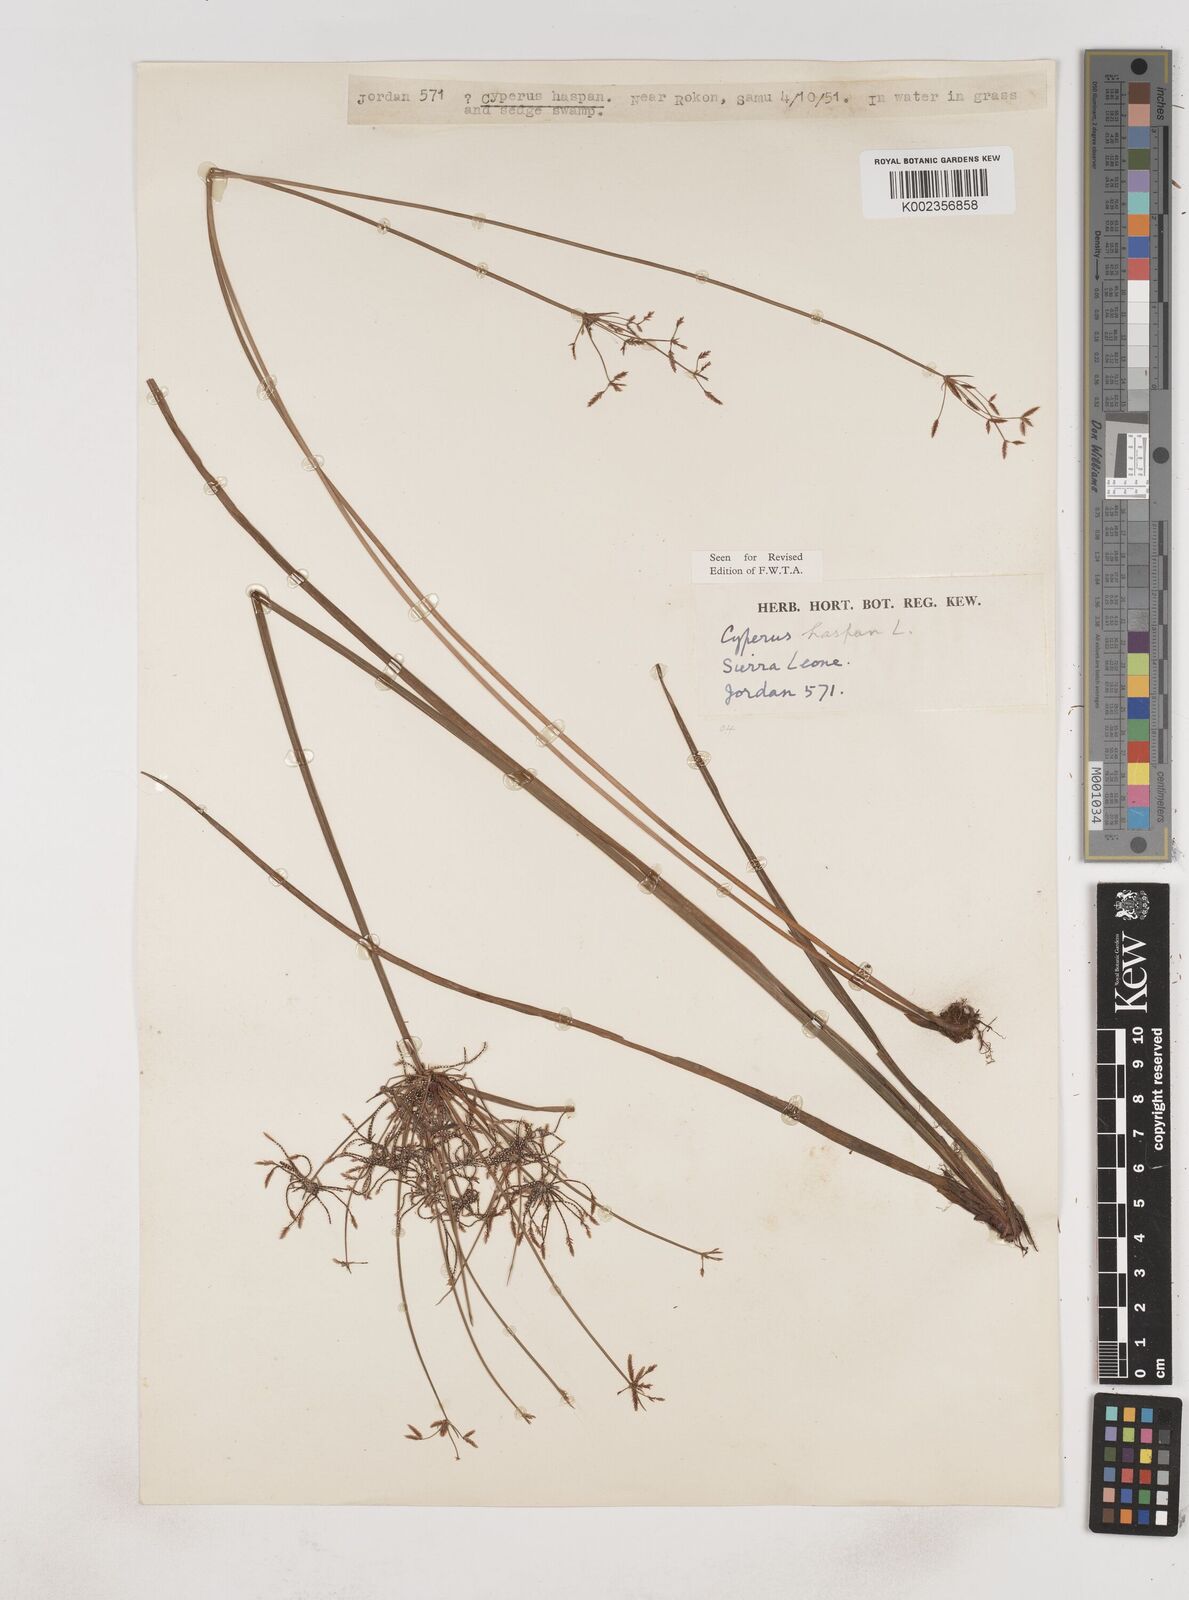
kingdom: Plantae
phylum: Tracheophyta
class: Liliopsida
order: Poales
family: Cyperaceae
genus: Cyperus
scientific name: Cyperus haspan
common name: Haspan flatsedge
